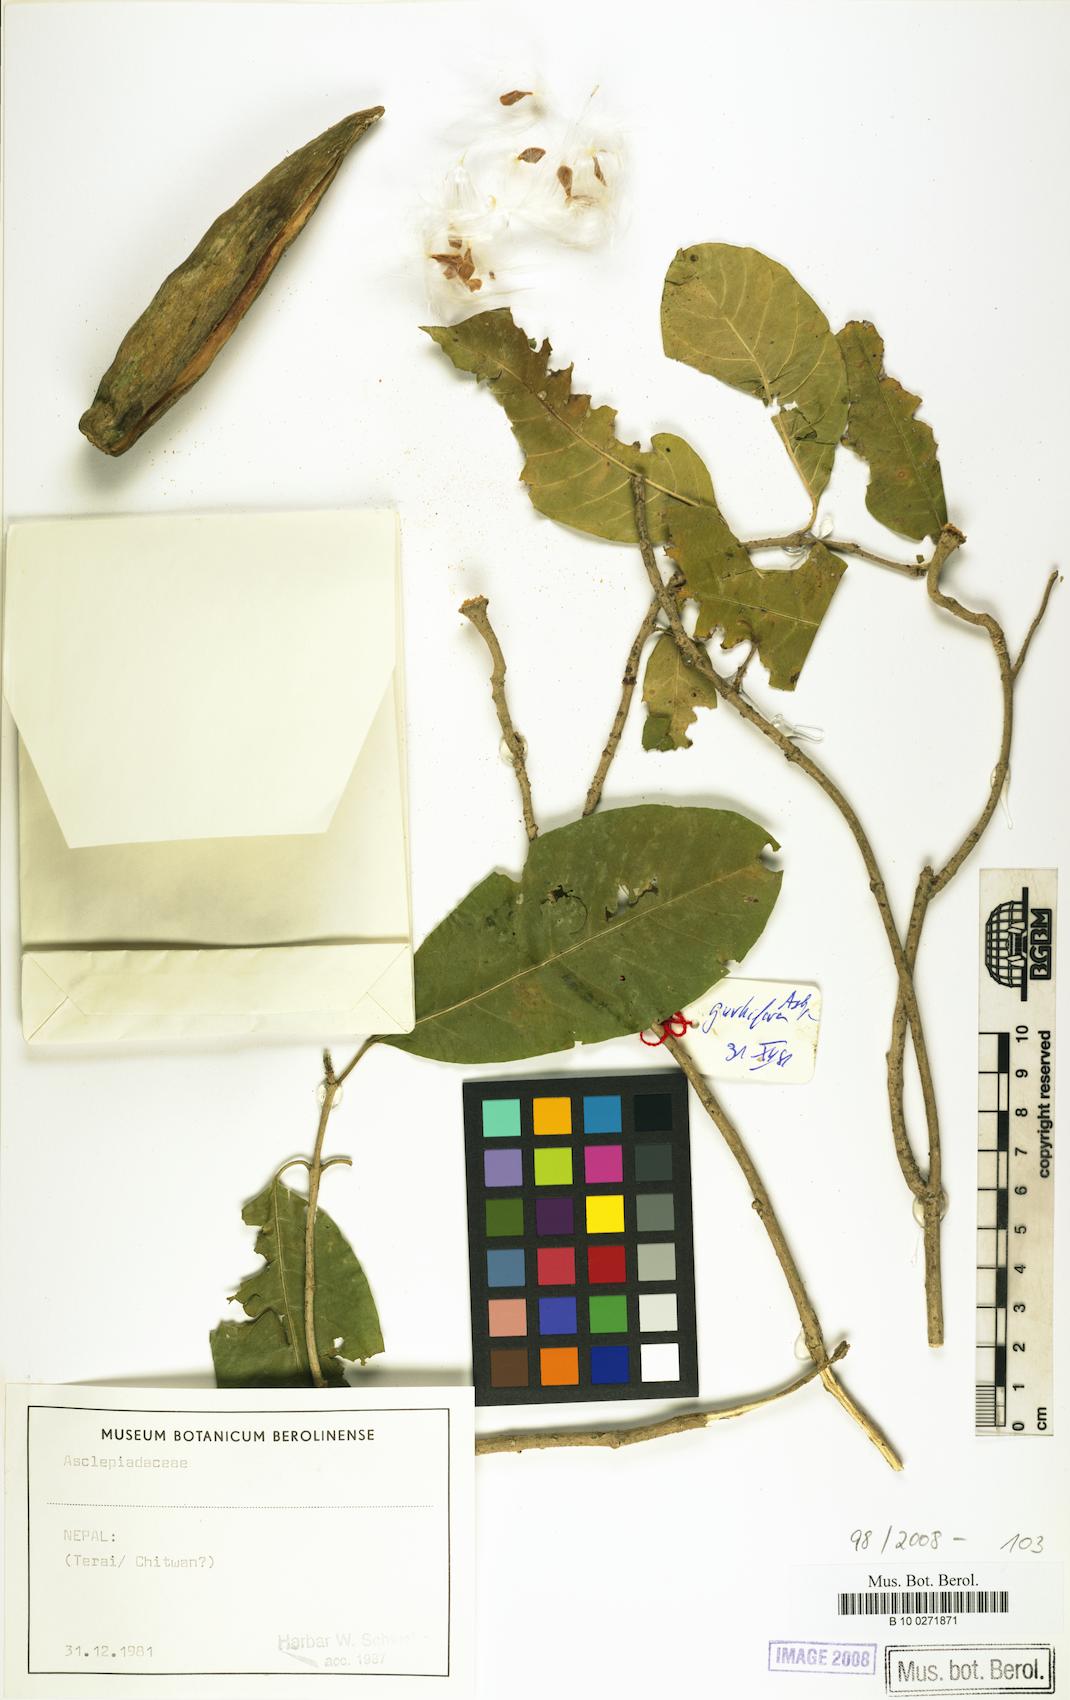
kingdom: Plantae
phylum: Tracheophyta
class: Magnoliopsida
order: Gentianales
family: Asclepiadaceae
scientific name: Asclepiadaceae
